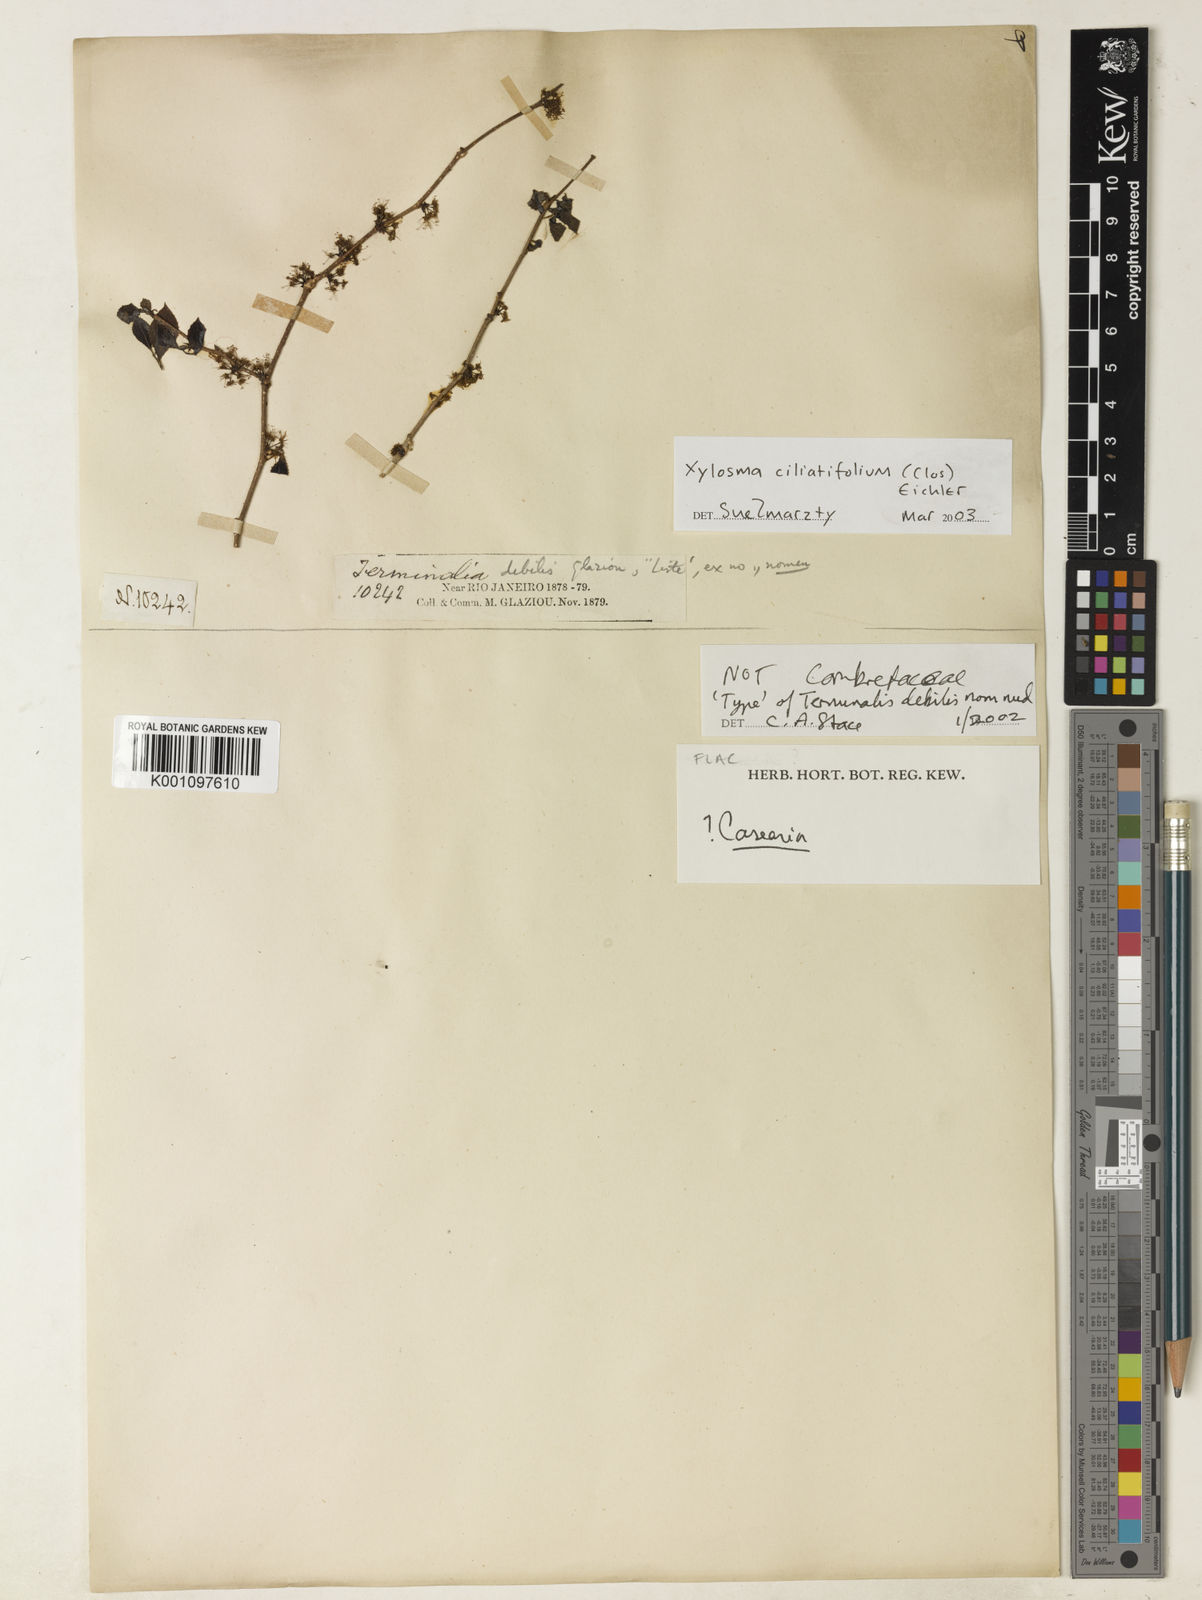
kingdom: Plantae
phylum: Tracheophyta
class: Magnoliopsida
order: Malpighiales
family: Salicaceae
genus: Xylosma
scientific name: Xylosma ciliatifolia
